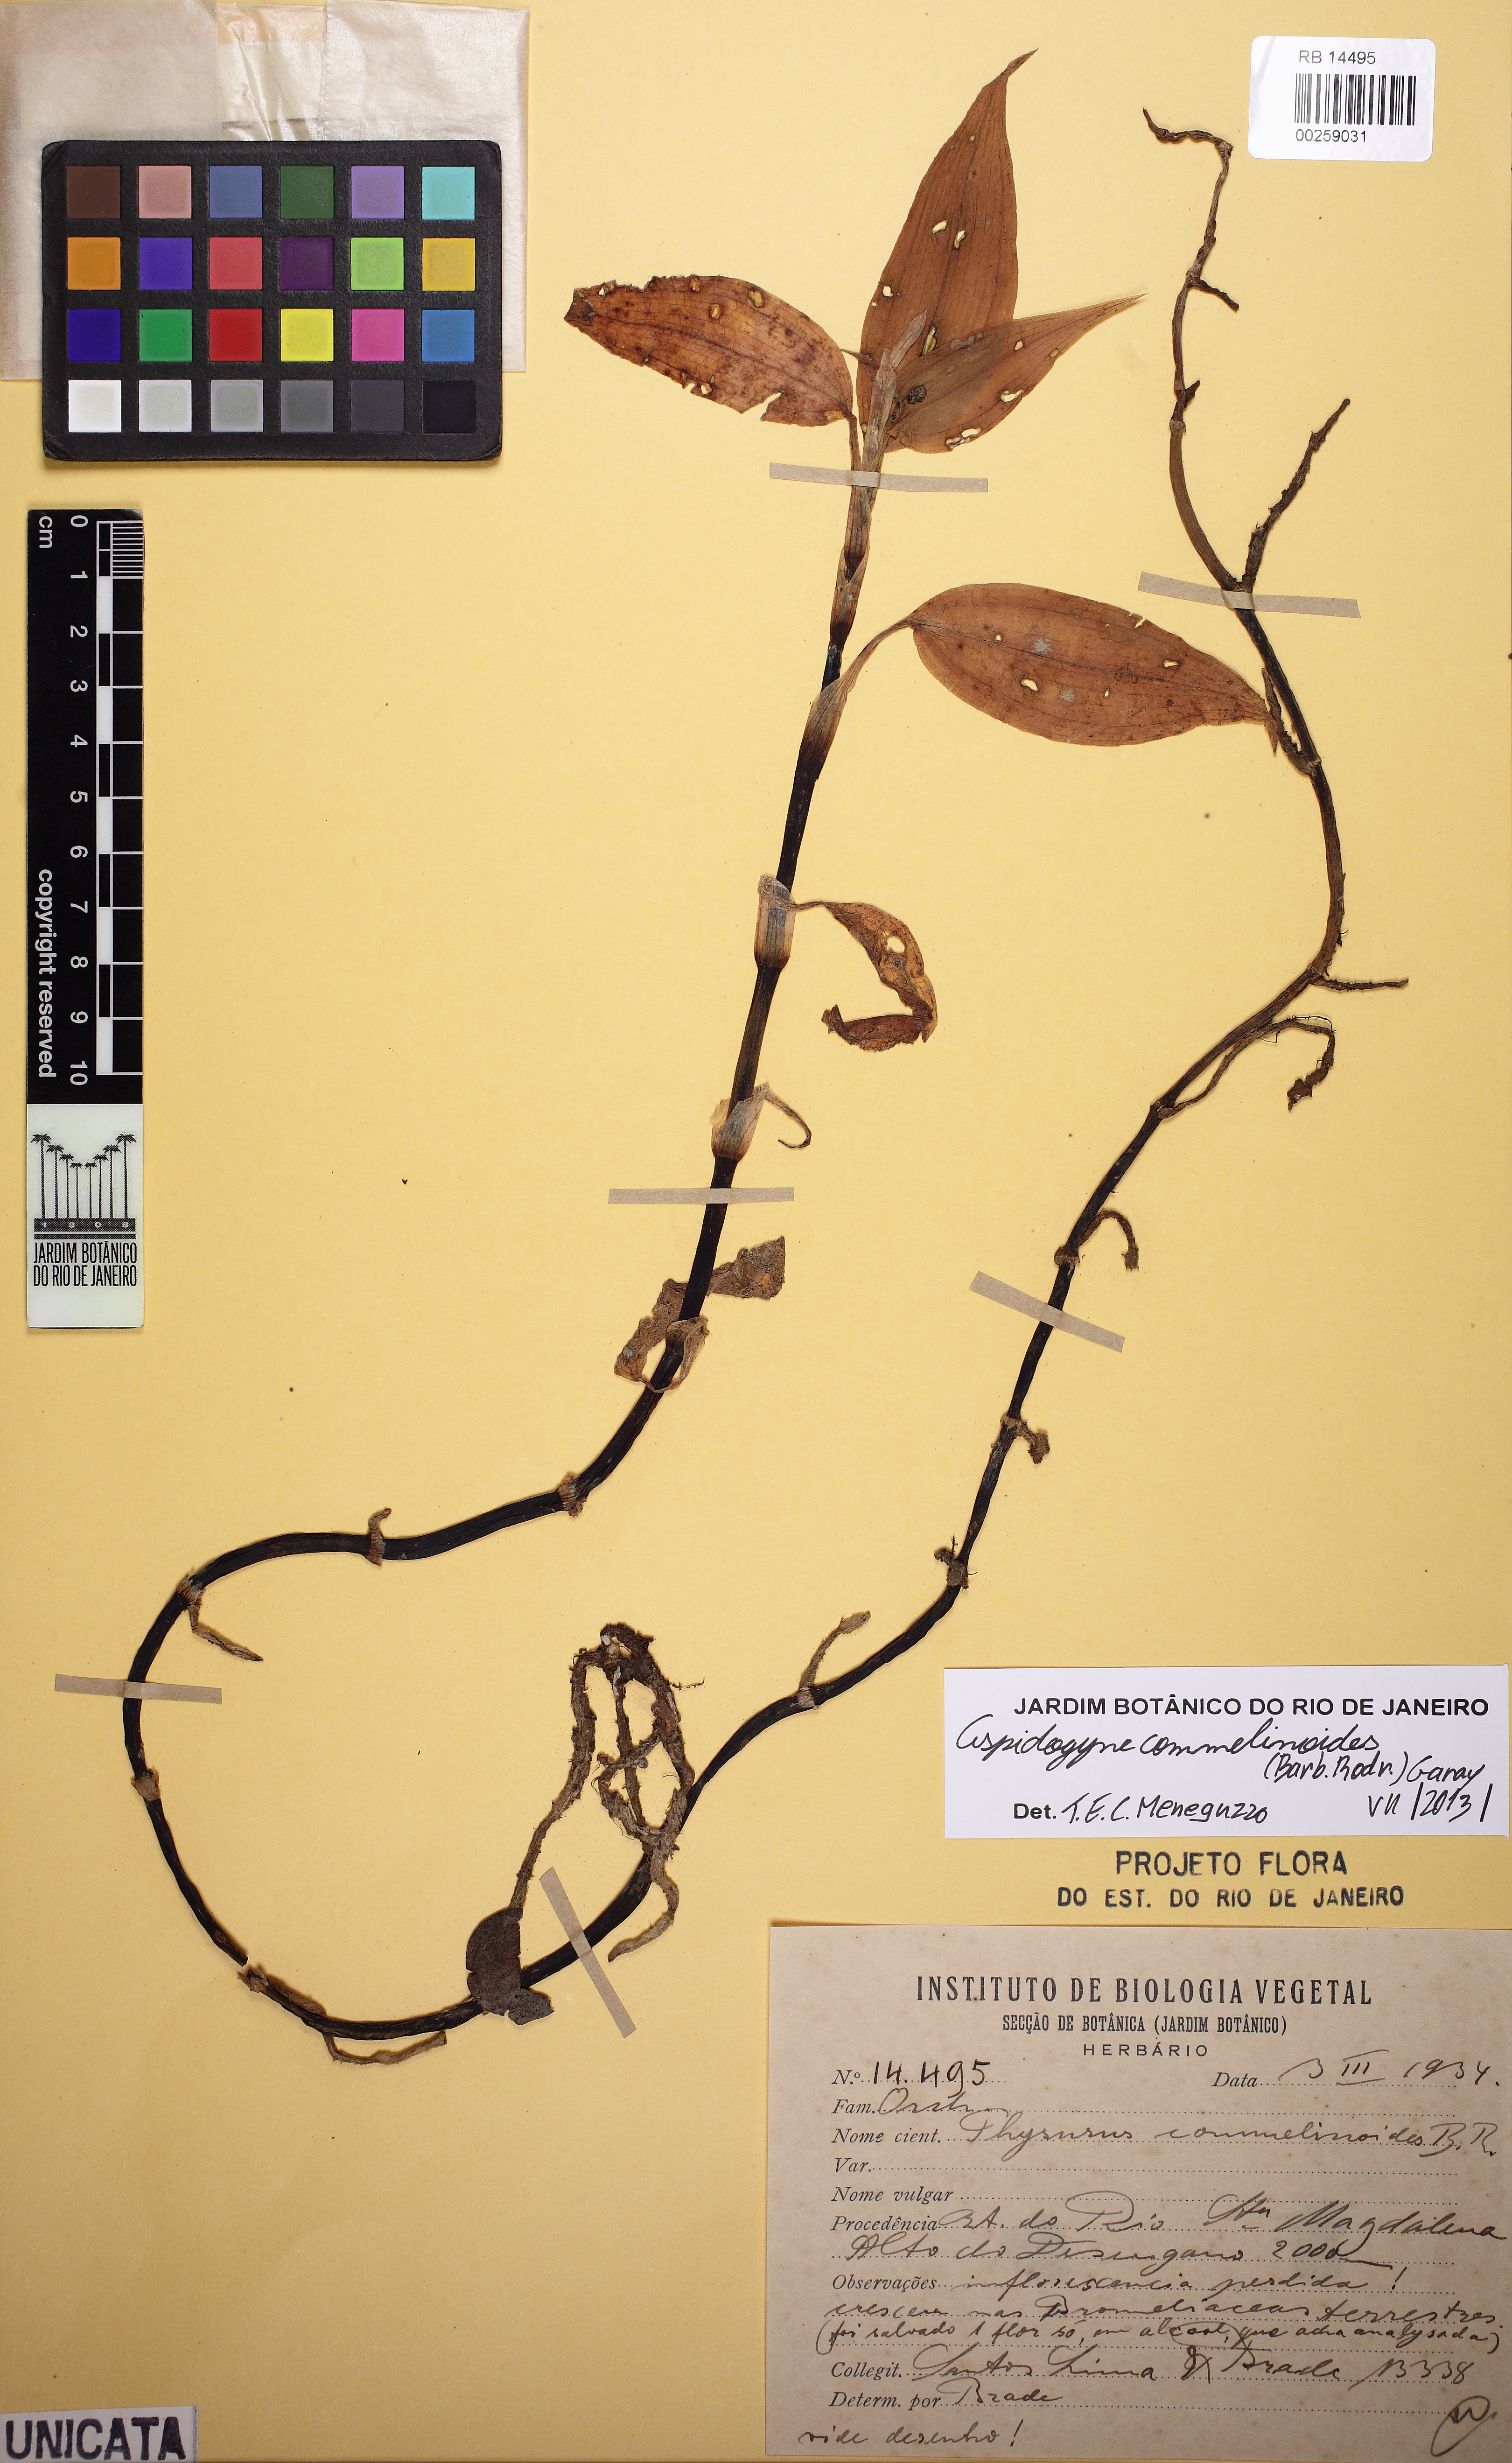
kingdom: Plantae
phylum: Tracheophyta
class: Liliopsida
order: Asparagales
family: Orchidaceae
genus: Aspidogyne
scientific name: Aspidogyne commelinoides
